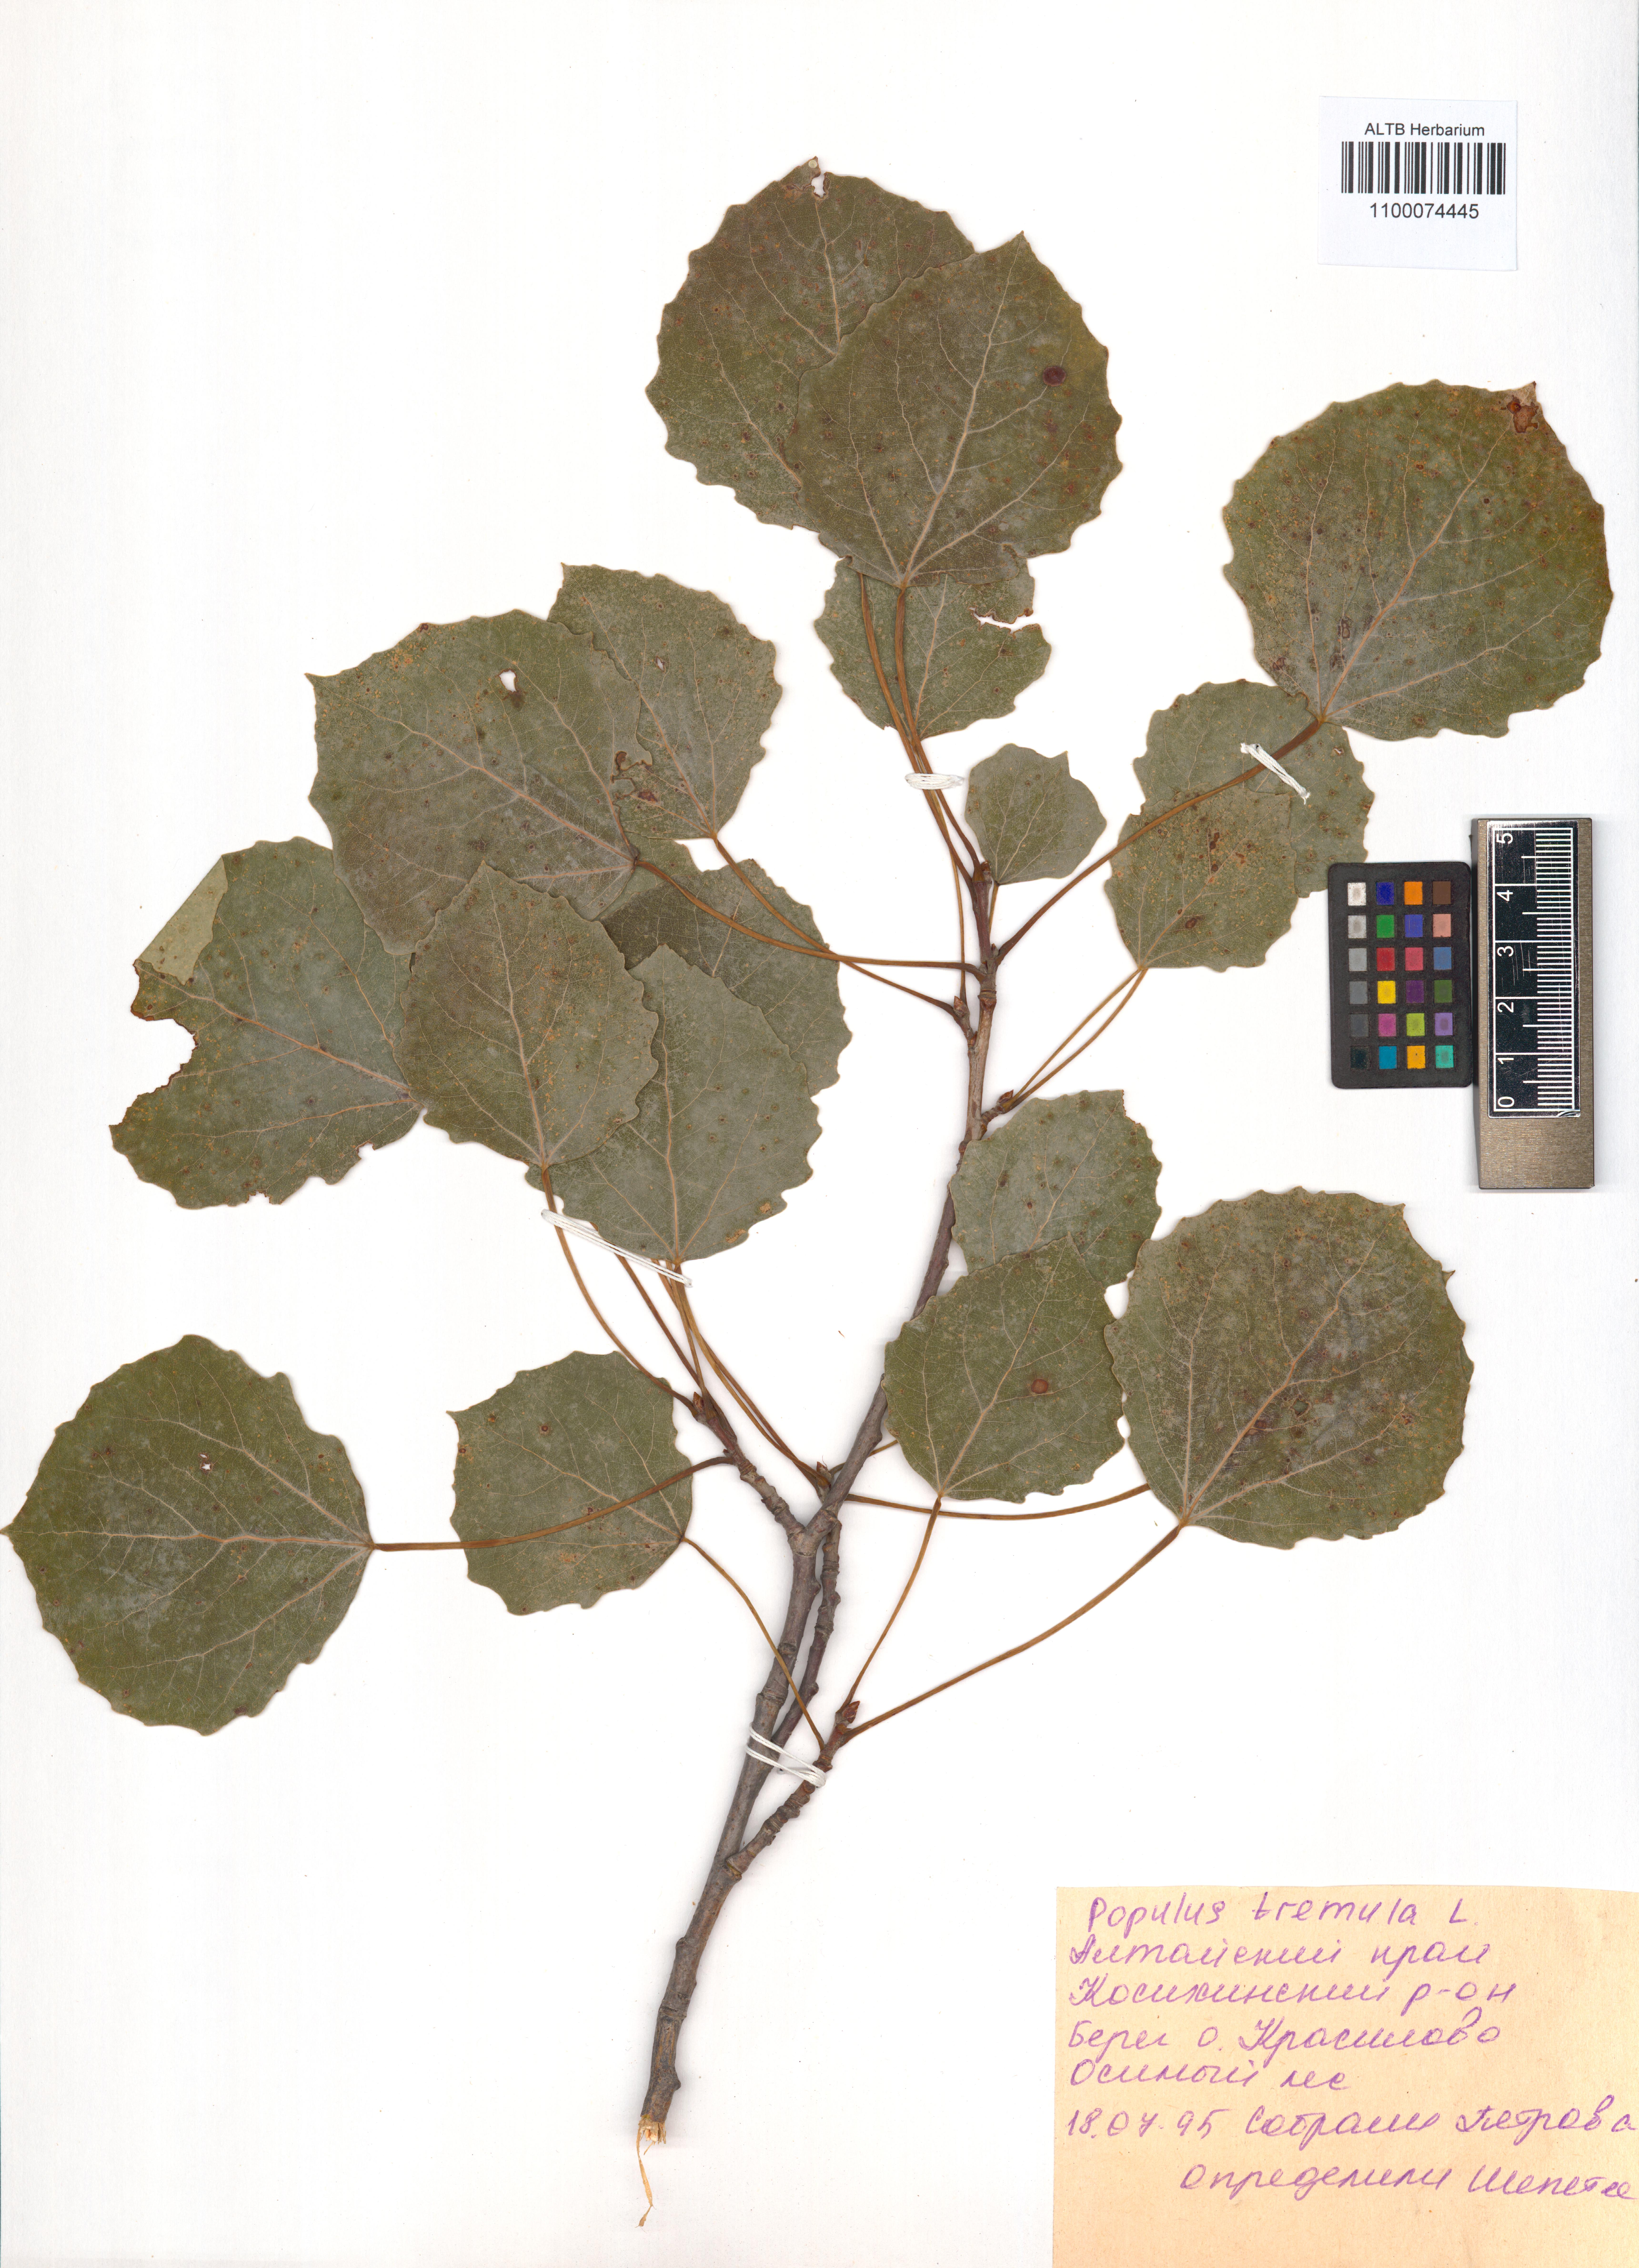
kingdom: Plantae
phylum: Tracheophyta
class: Magnoliopsida
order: Malpighiales
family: Salicaceae
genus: Populus
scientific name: Populus tremula
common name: European aspen
